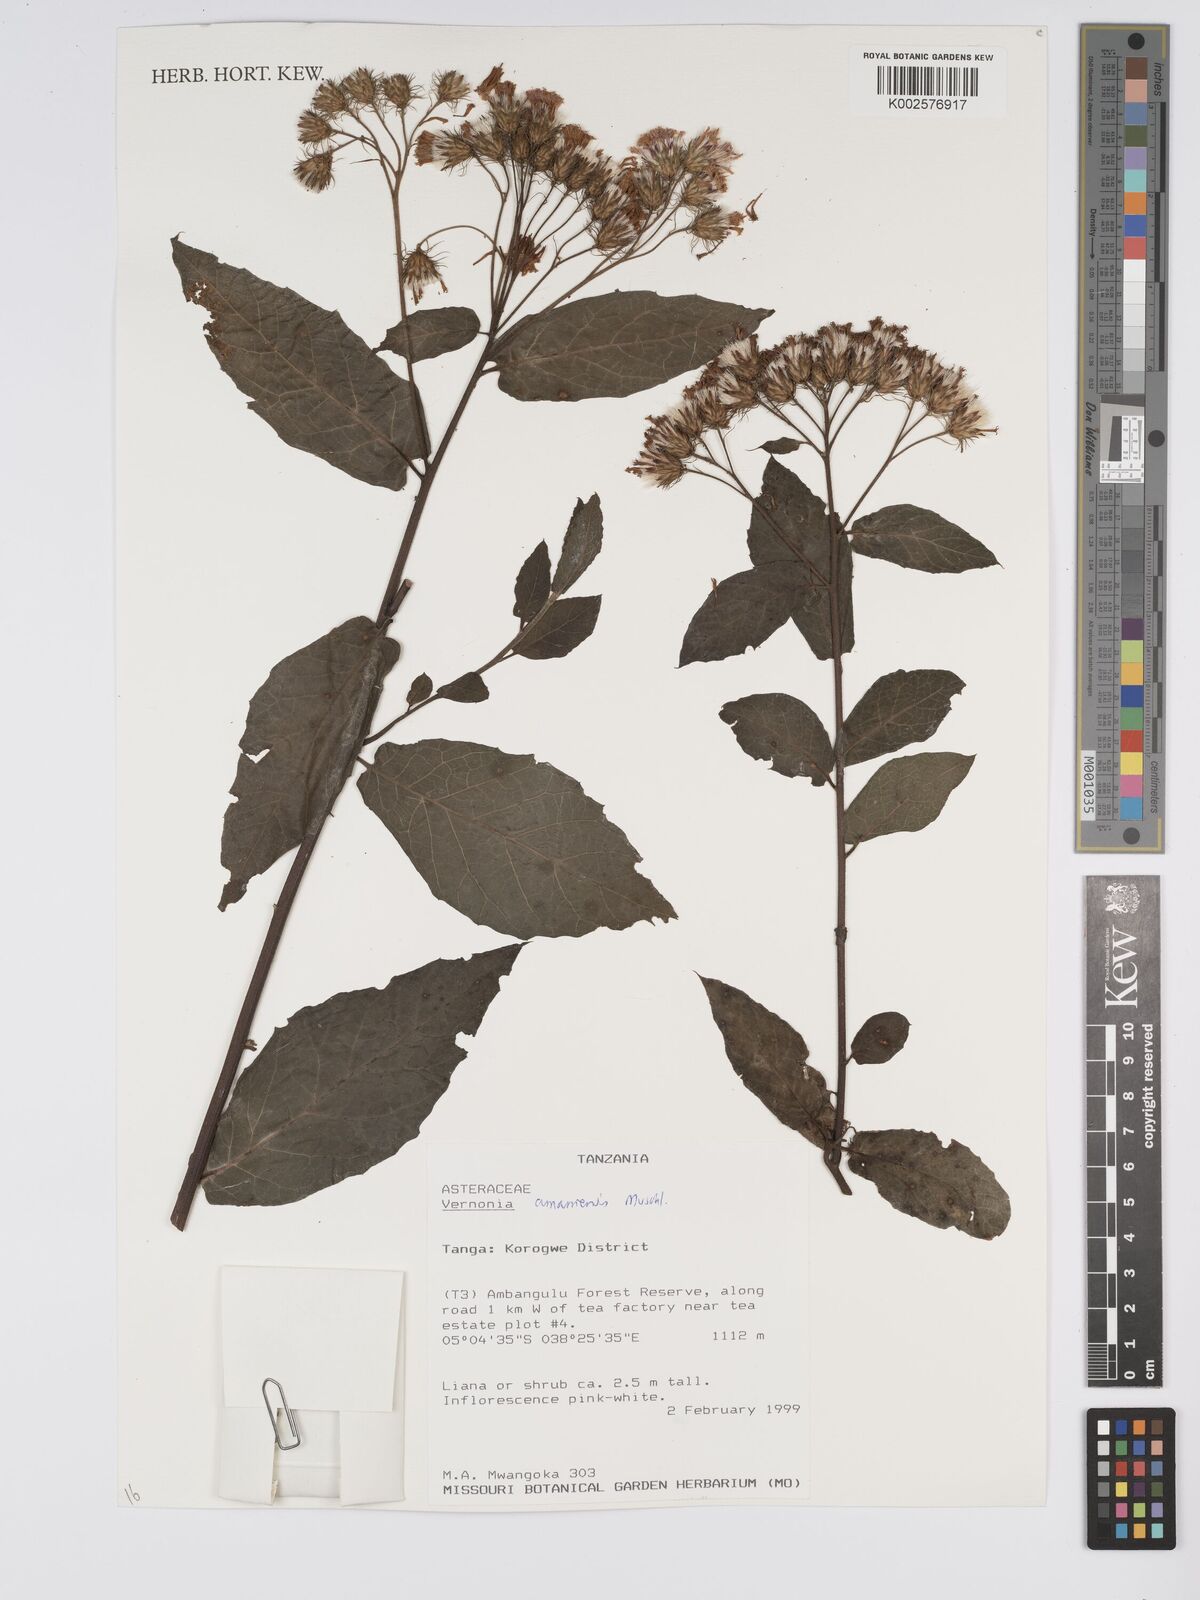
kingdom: Plantae
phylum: Tracheophyta
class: Magnoliopsida
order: Asterales
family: Asteraceae
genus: Jeffreycia
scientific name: Jeffreycia amaniensis
